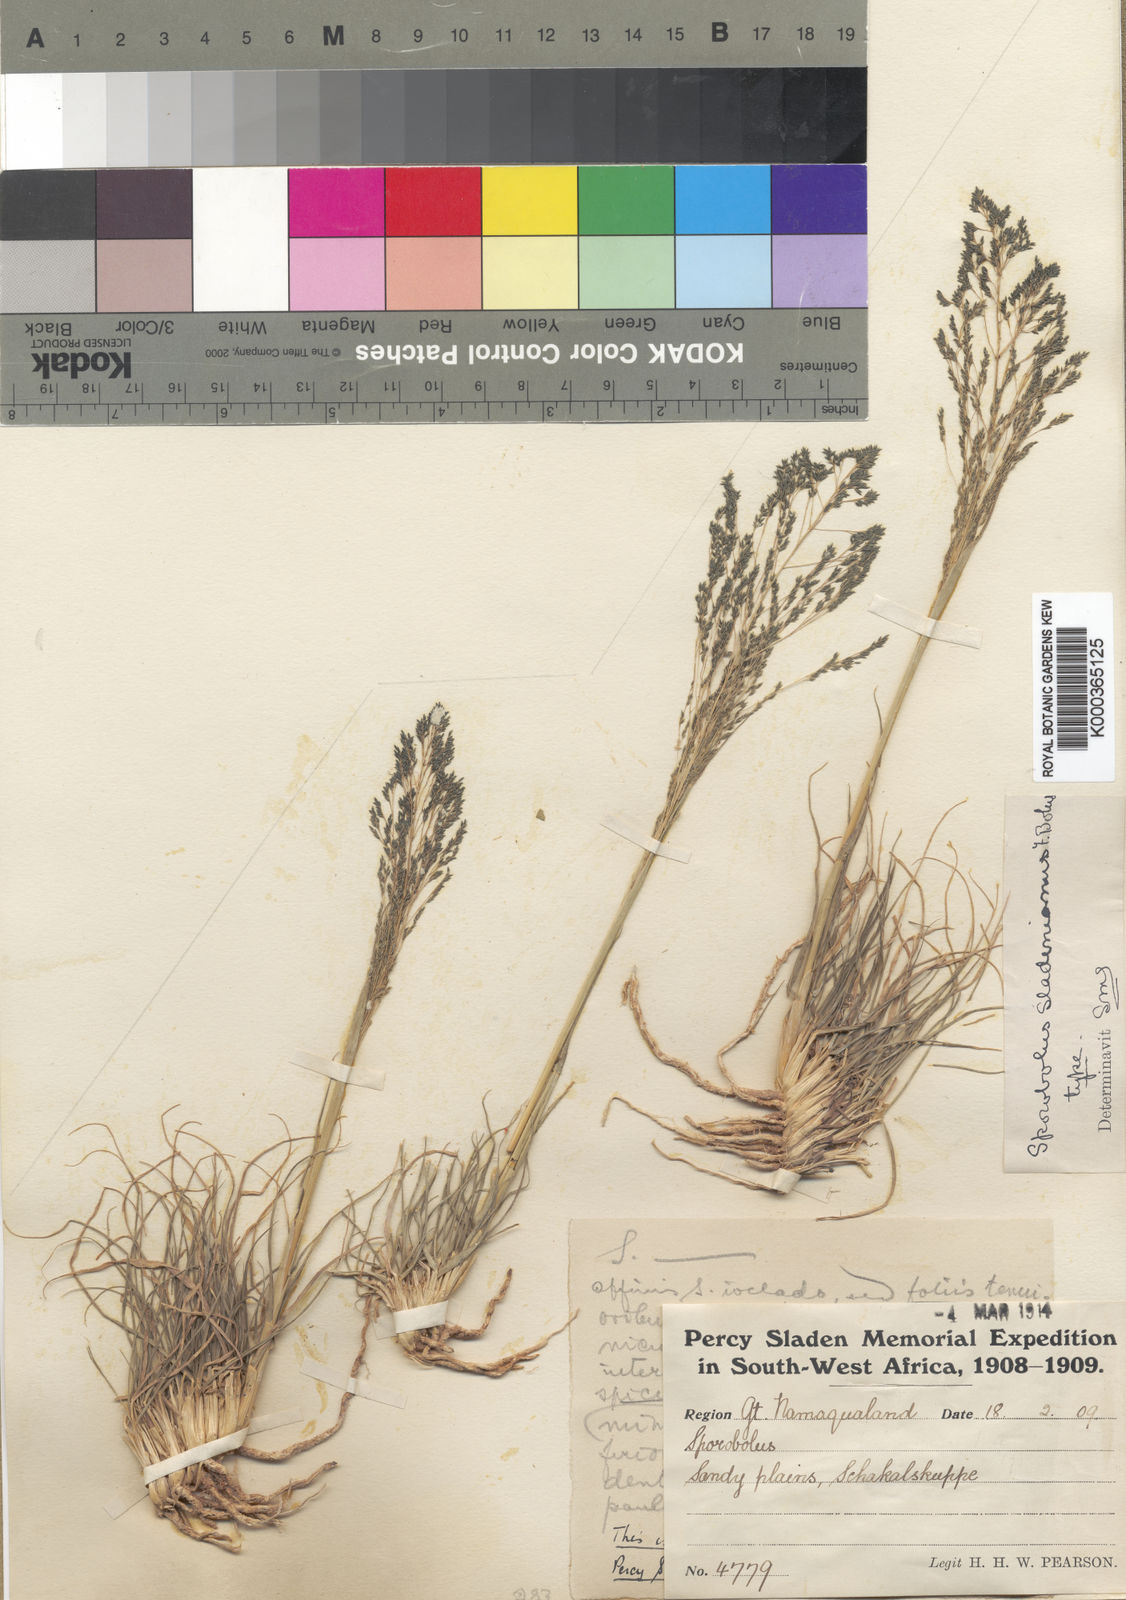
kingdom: Plantae
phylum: Tracheophyta
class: Liliopsida
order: Poales
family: Poaceae
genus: Sporobolus
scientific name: Sporobolus nervosus
